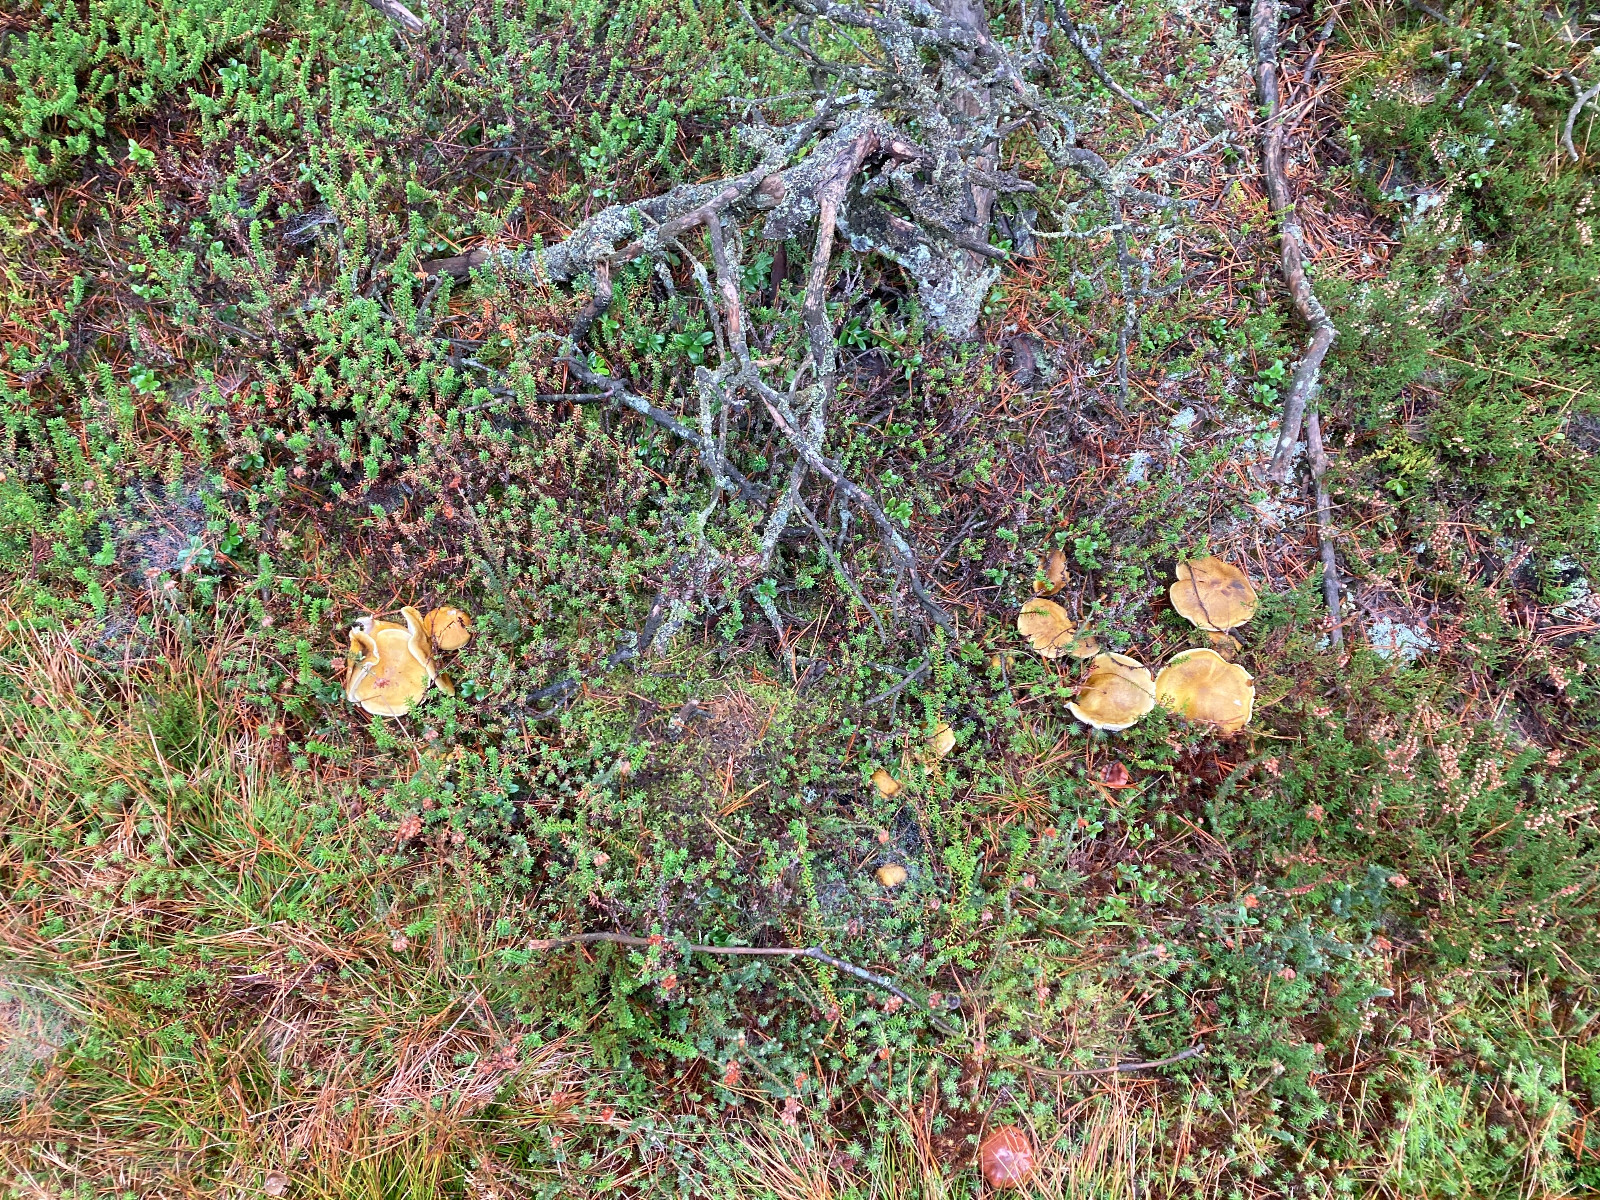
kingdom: Fungi
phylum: Basidiomycota
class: Agaricomycetes
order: Agaricales
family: Tricholomataceae
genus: Tricholoma
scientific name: Tricholoma arvernense
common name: kantet ridderhat
